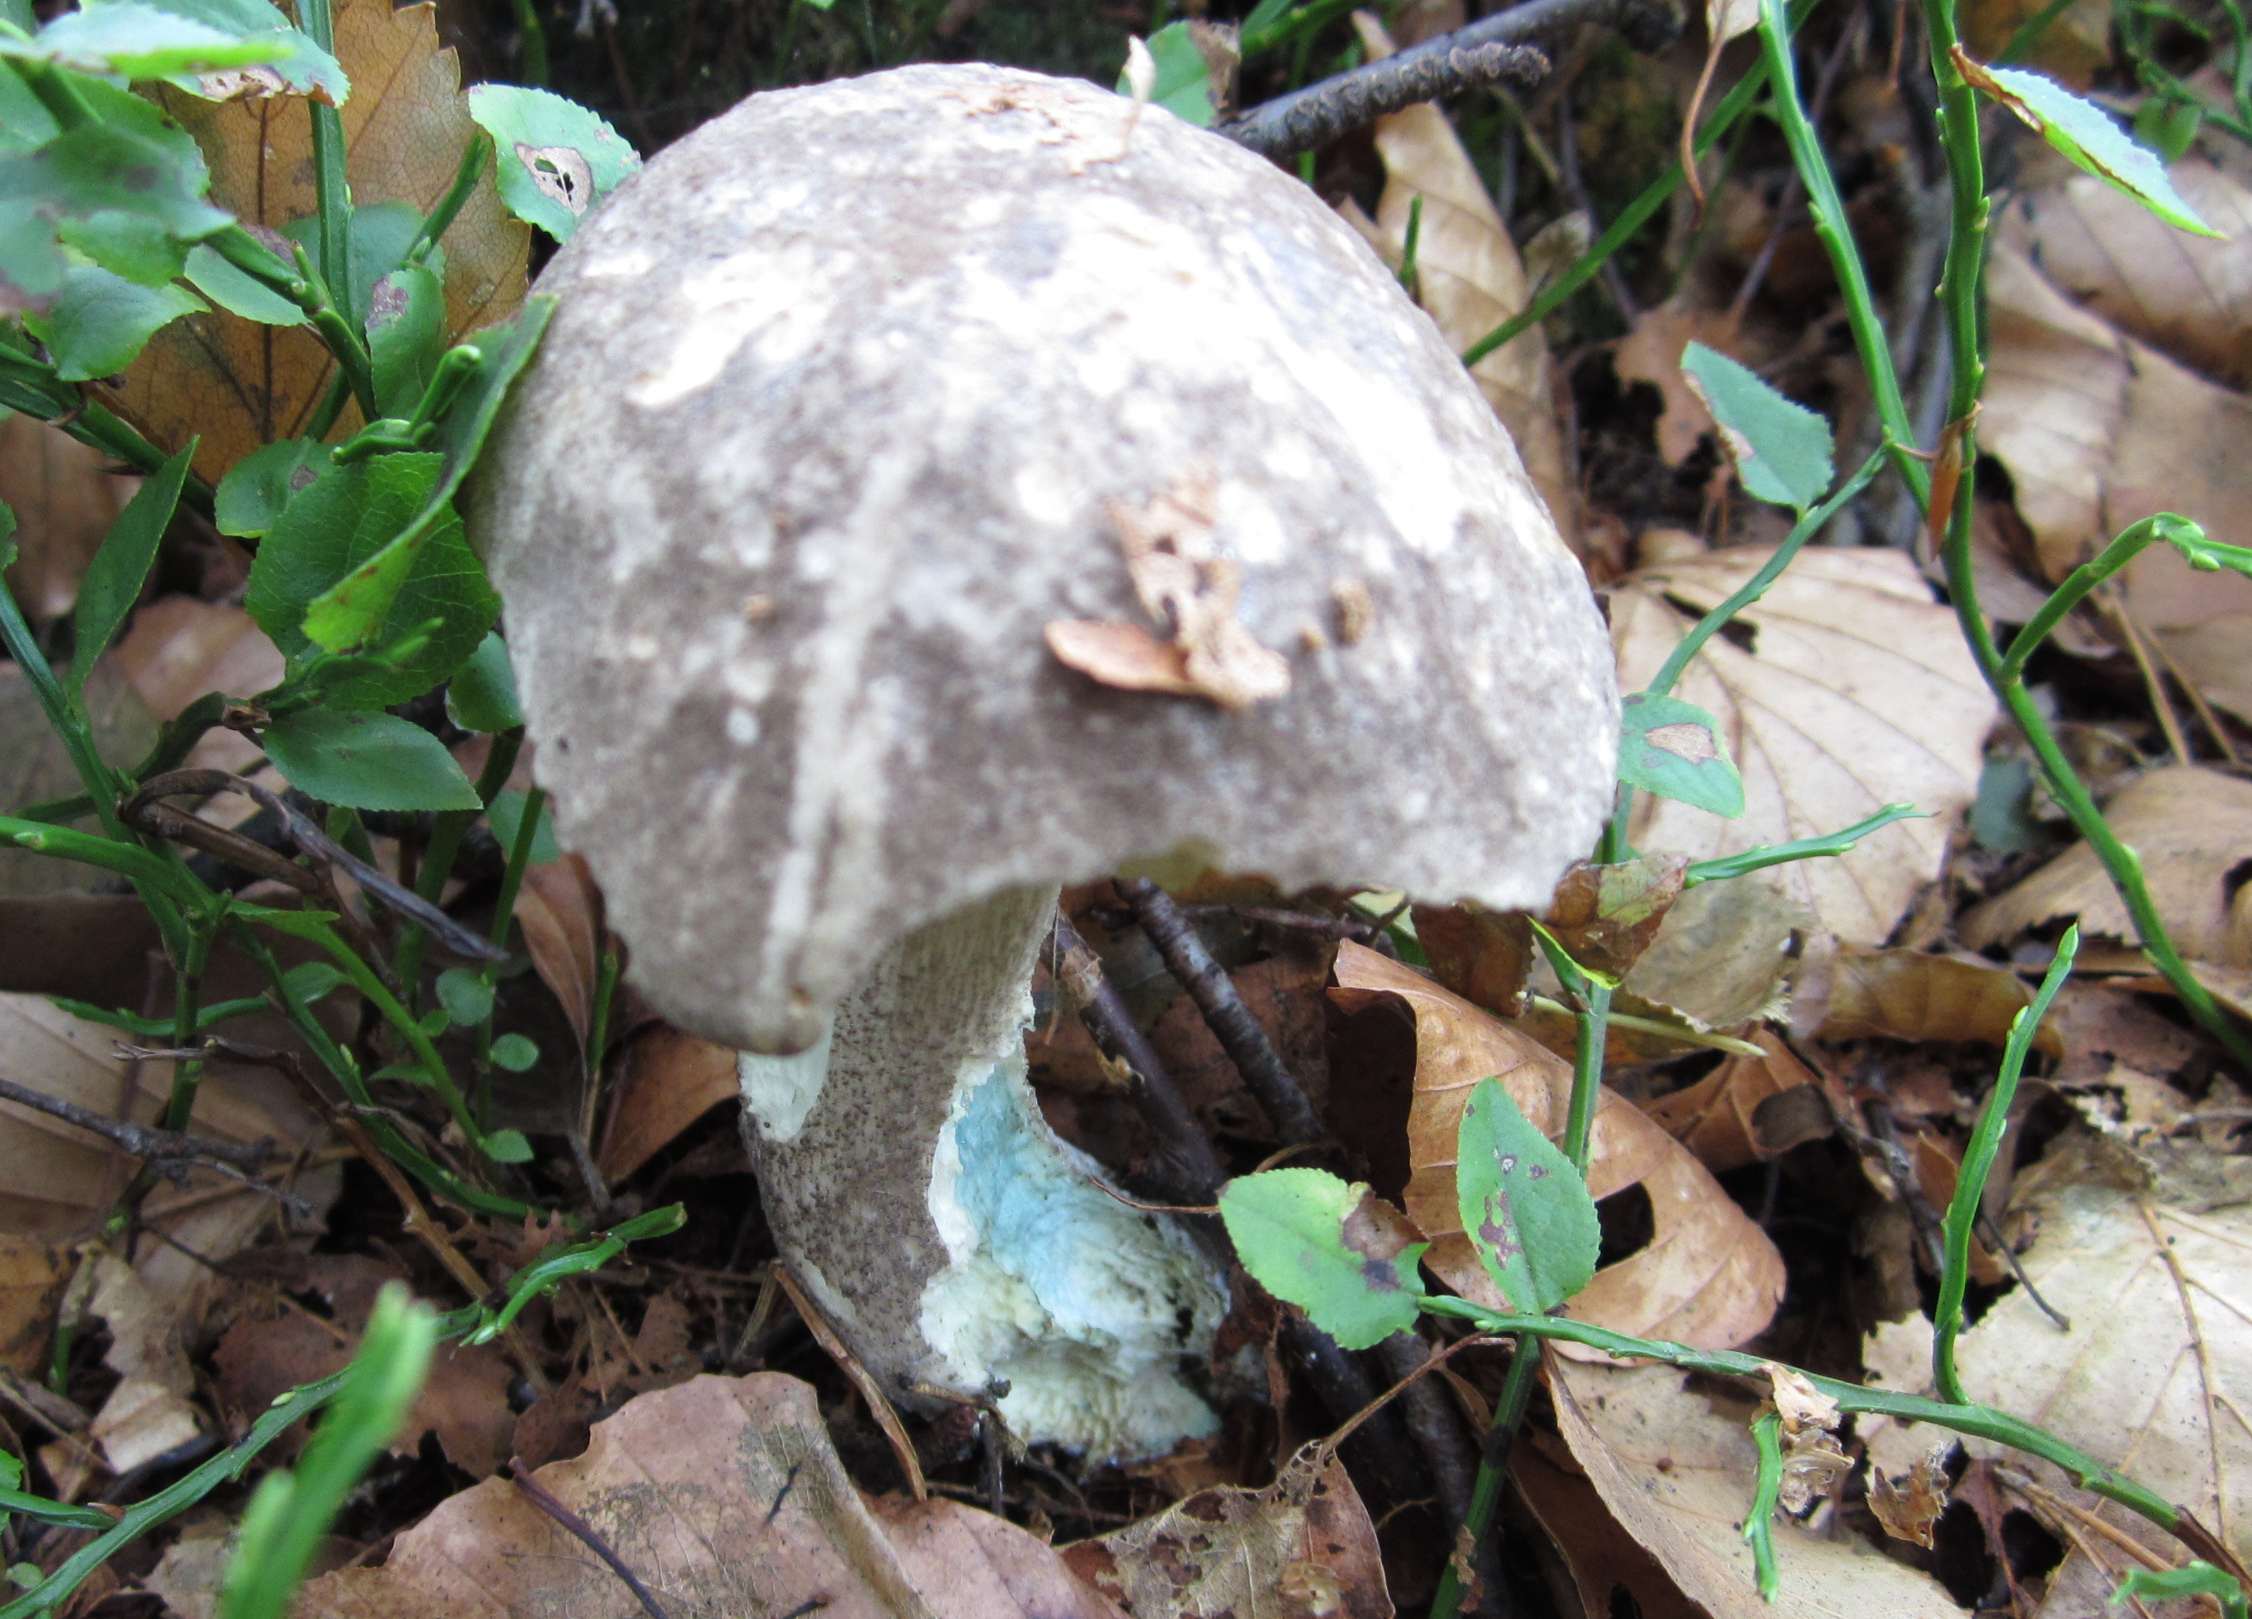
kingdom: Fungi
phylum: Basidiomycota
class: Agaricomycetes
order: Boletales
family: Boletaceae
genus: Leccinum
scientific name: Leccinum variicolor
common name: flammet skælrørhat
